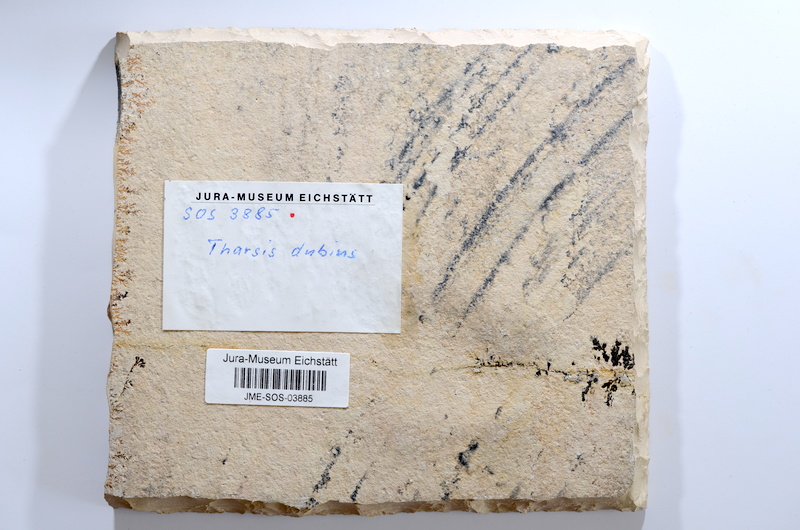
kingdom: Animalia
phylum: Chordata
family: Ascalaboidae
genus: Tharsis
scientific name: Tharsis dubius
